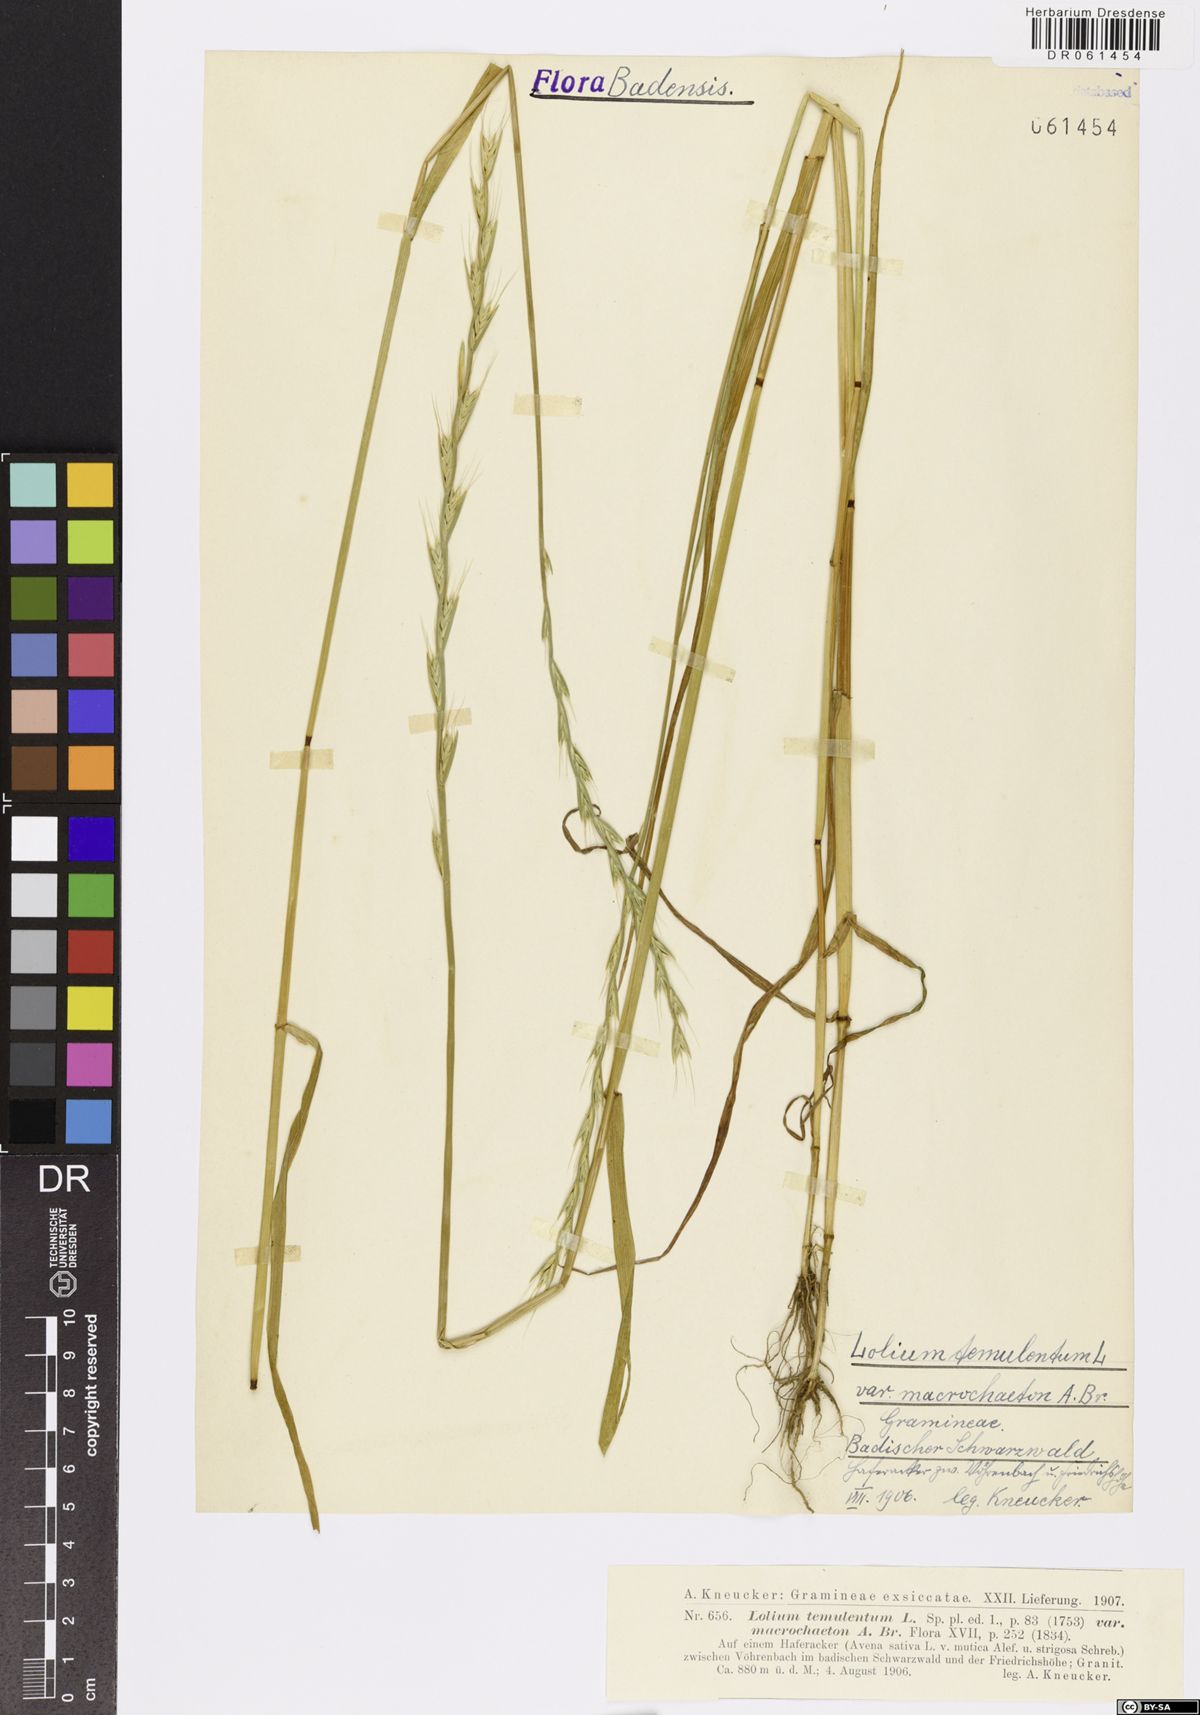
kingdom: Plantae
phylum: Tracheophyta
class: Liliopsida
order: Poales
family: Poaceae
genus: Lolium
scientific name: Lolium temulentum
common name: Darnel
